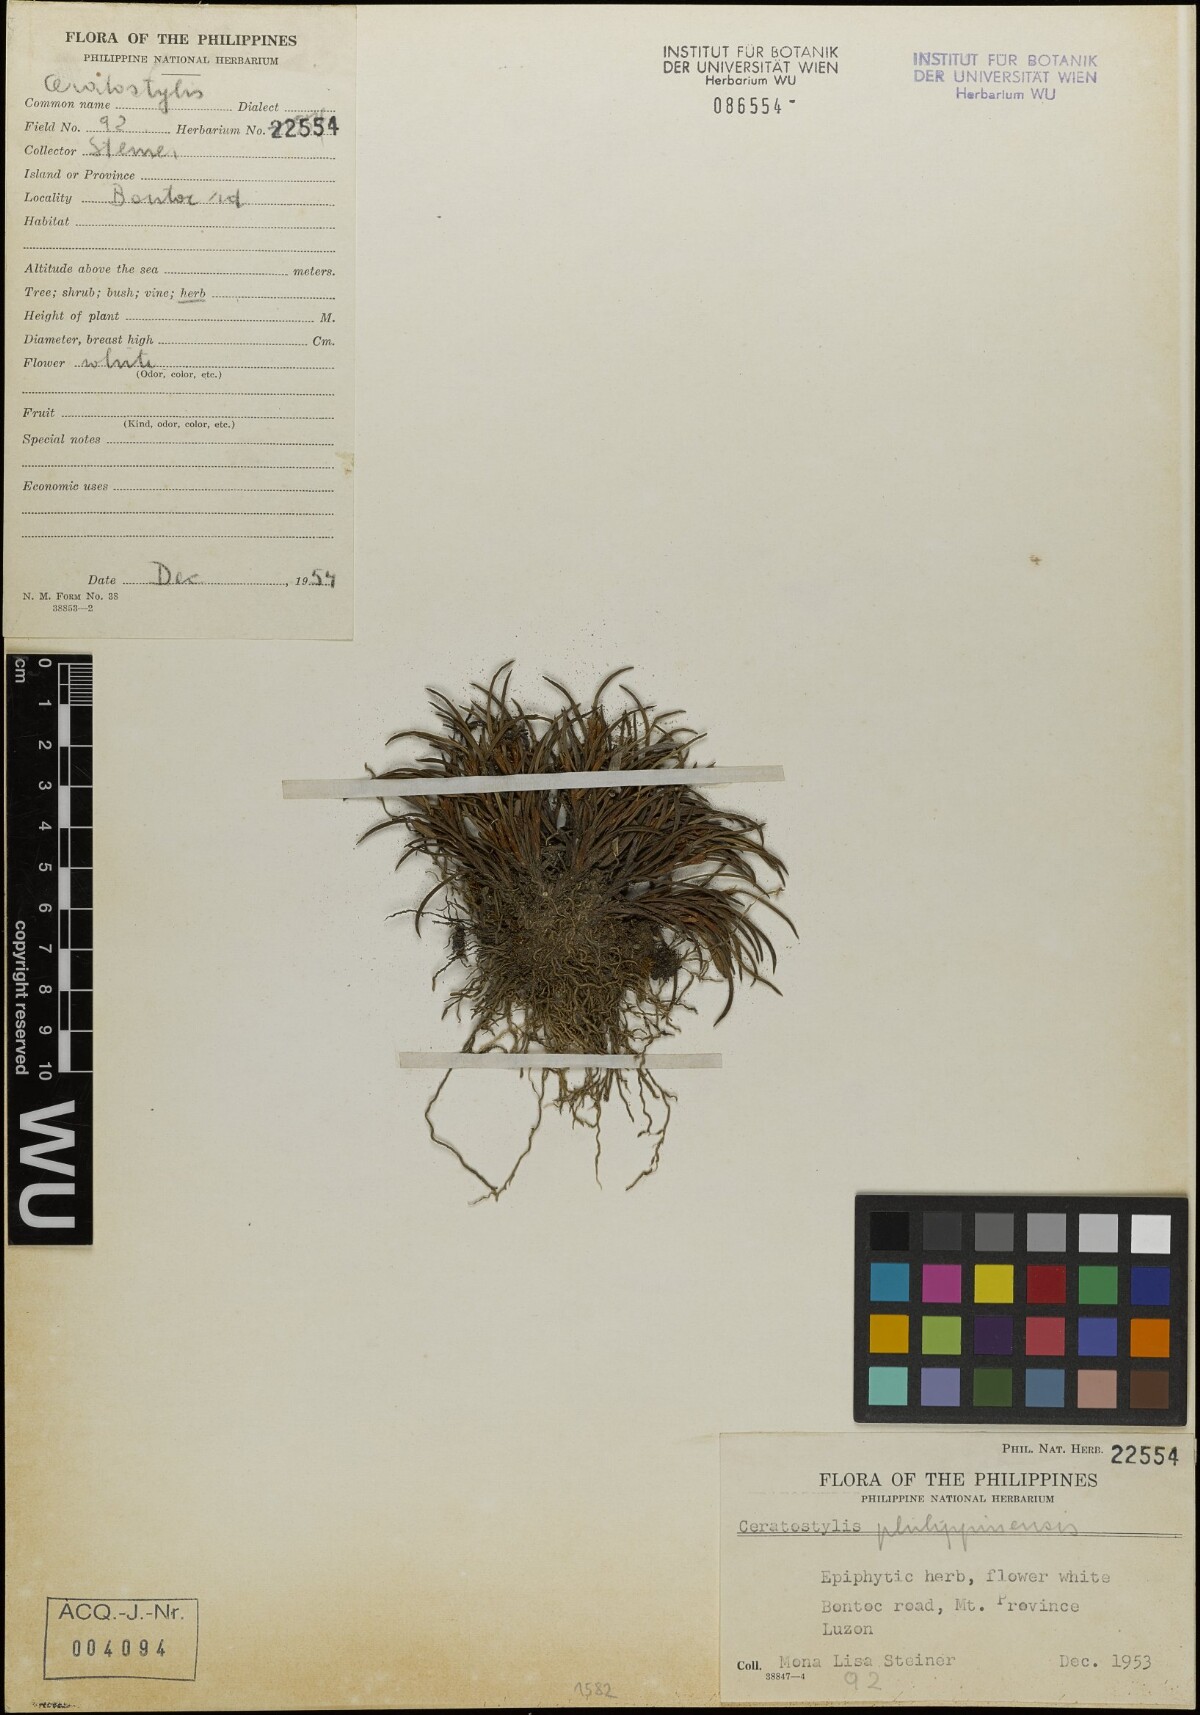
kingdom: Plantae
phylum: Tracheophyta
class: Liliopsida
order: Asparagales
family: Orchidaceae
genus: Ceratostylis
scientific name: Ceratostylis philippinensis
